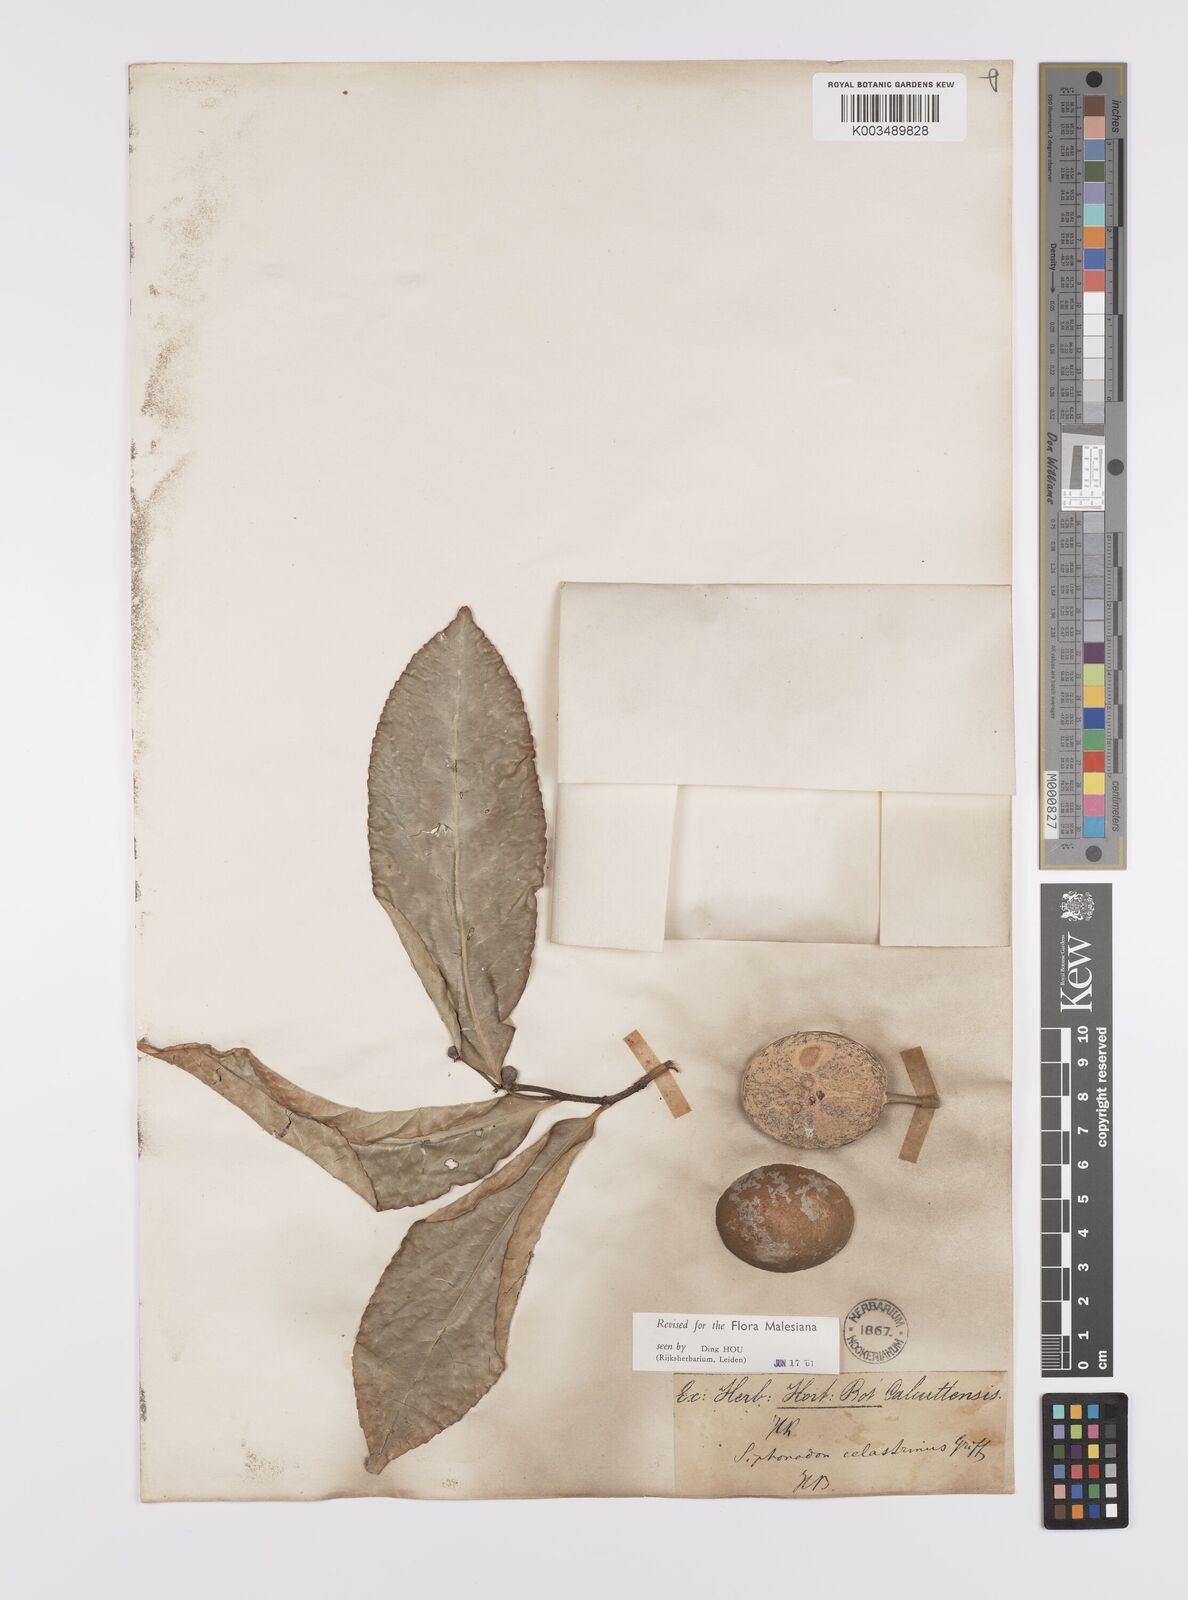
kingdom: Plantae
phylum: Tracheophyta
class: Magnoliopsida
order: Celastrales
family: Celastraceae
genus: Siphonodon
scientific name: Siphonodon celastrineus
